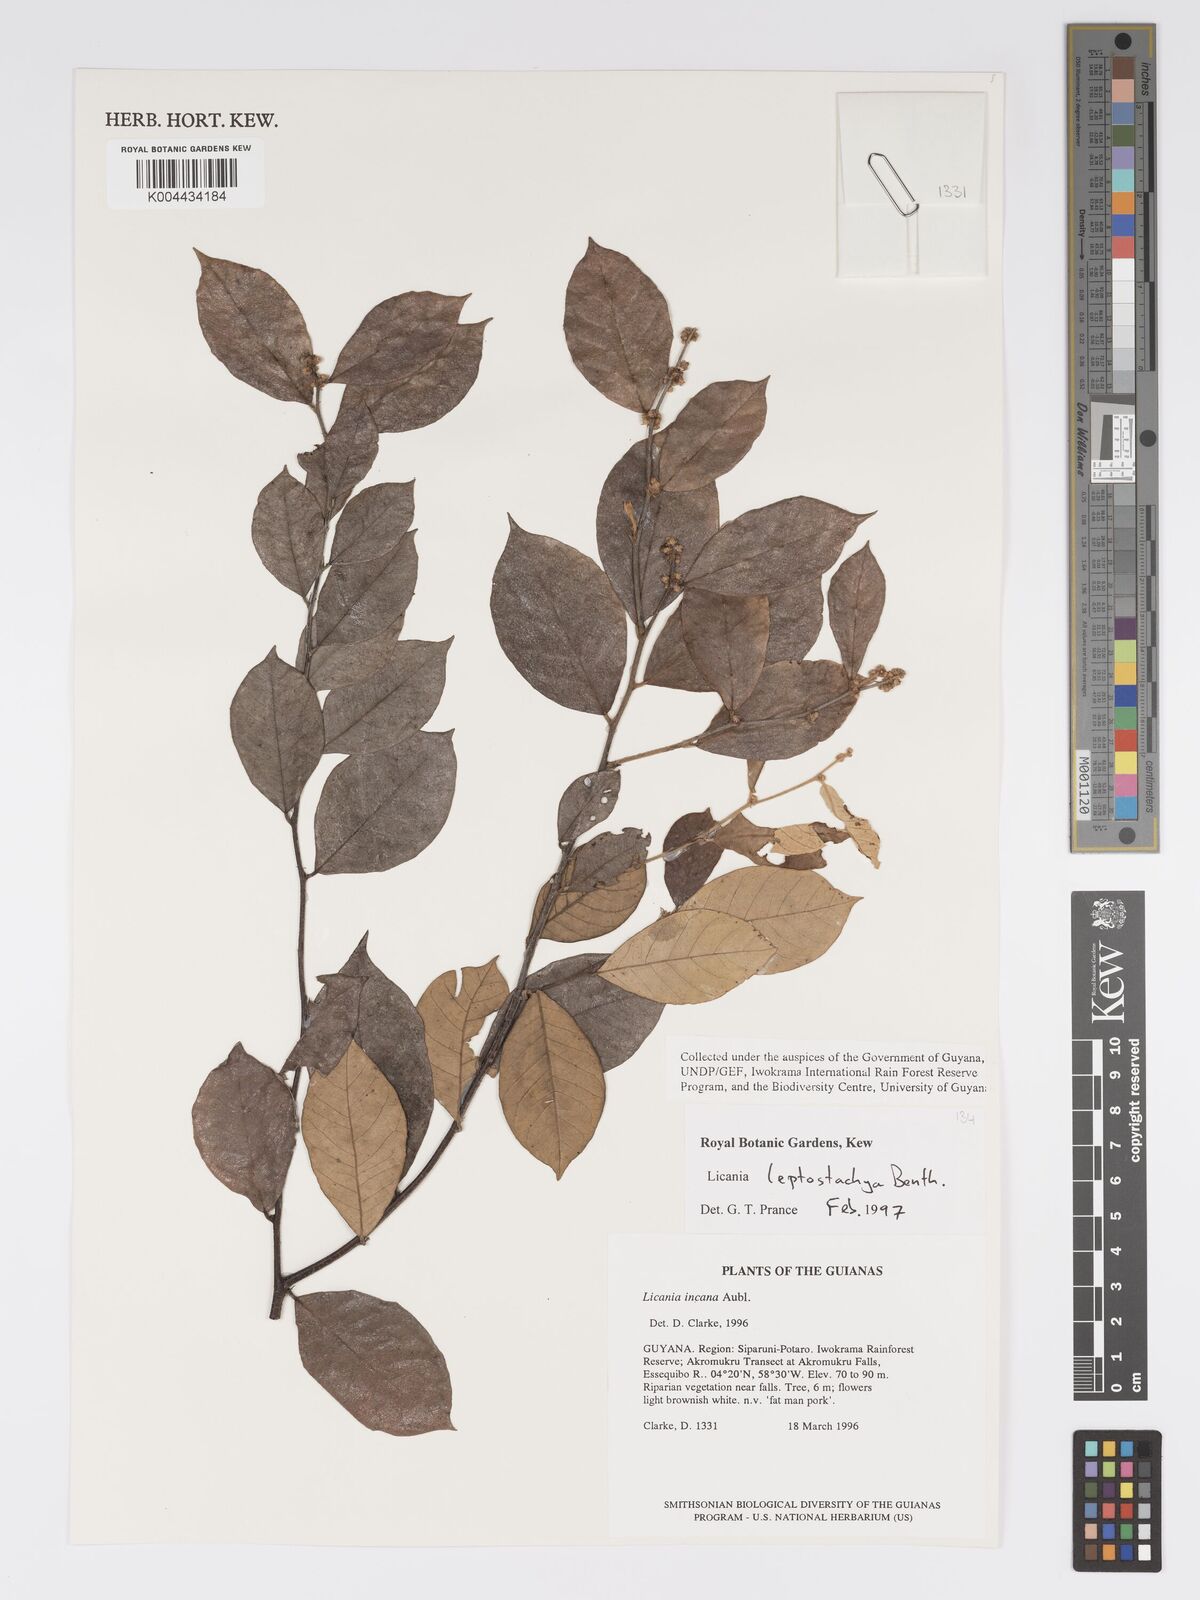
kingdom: Plantae
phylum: Tracheophyta
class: Magnoliopsida
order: Malpighiales
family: Chrysobalanaceae
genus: Licania
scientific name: Licania leptostachya
